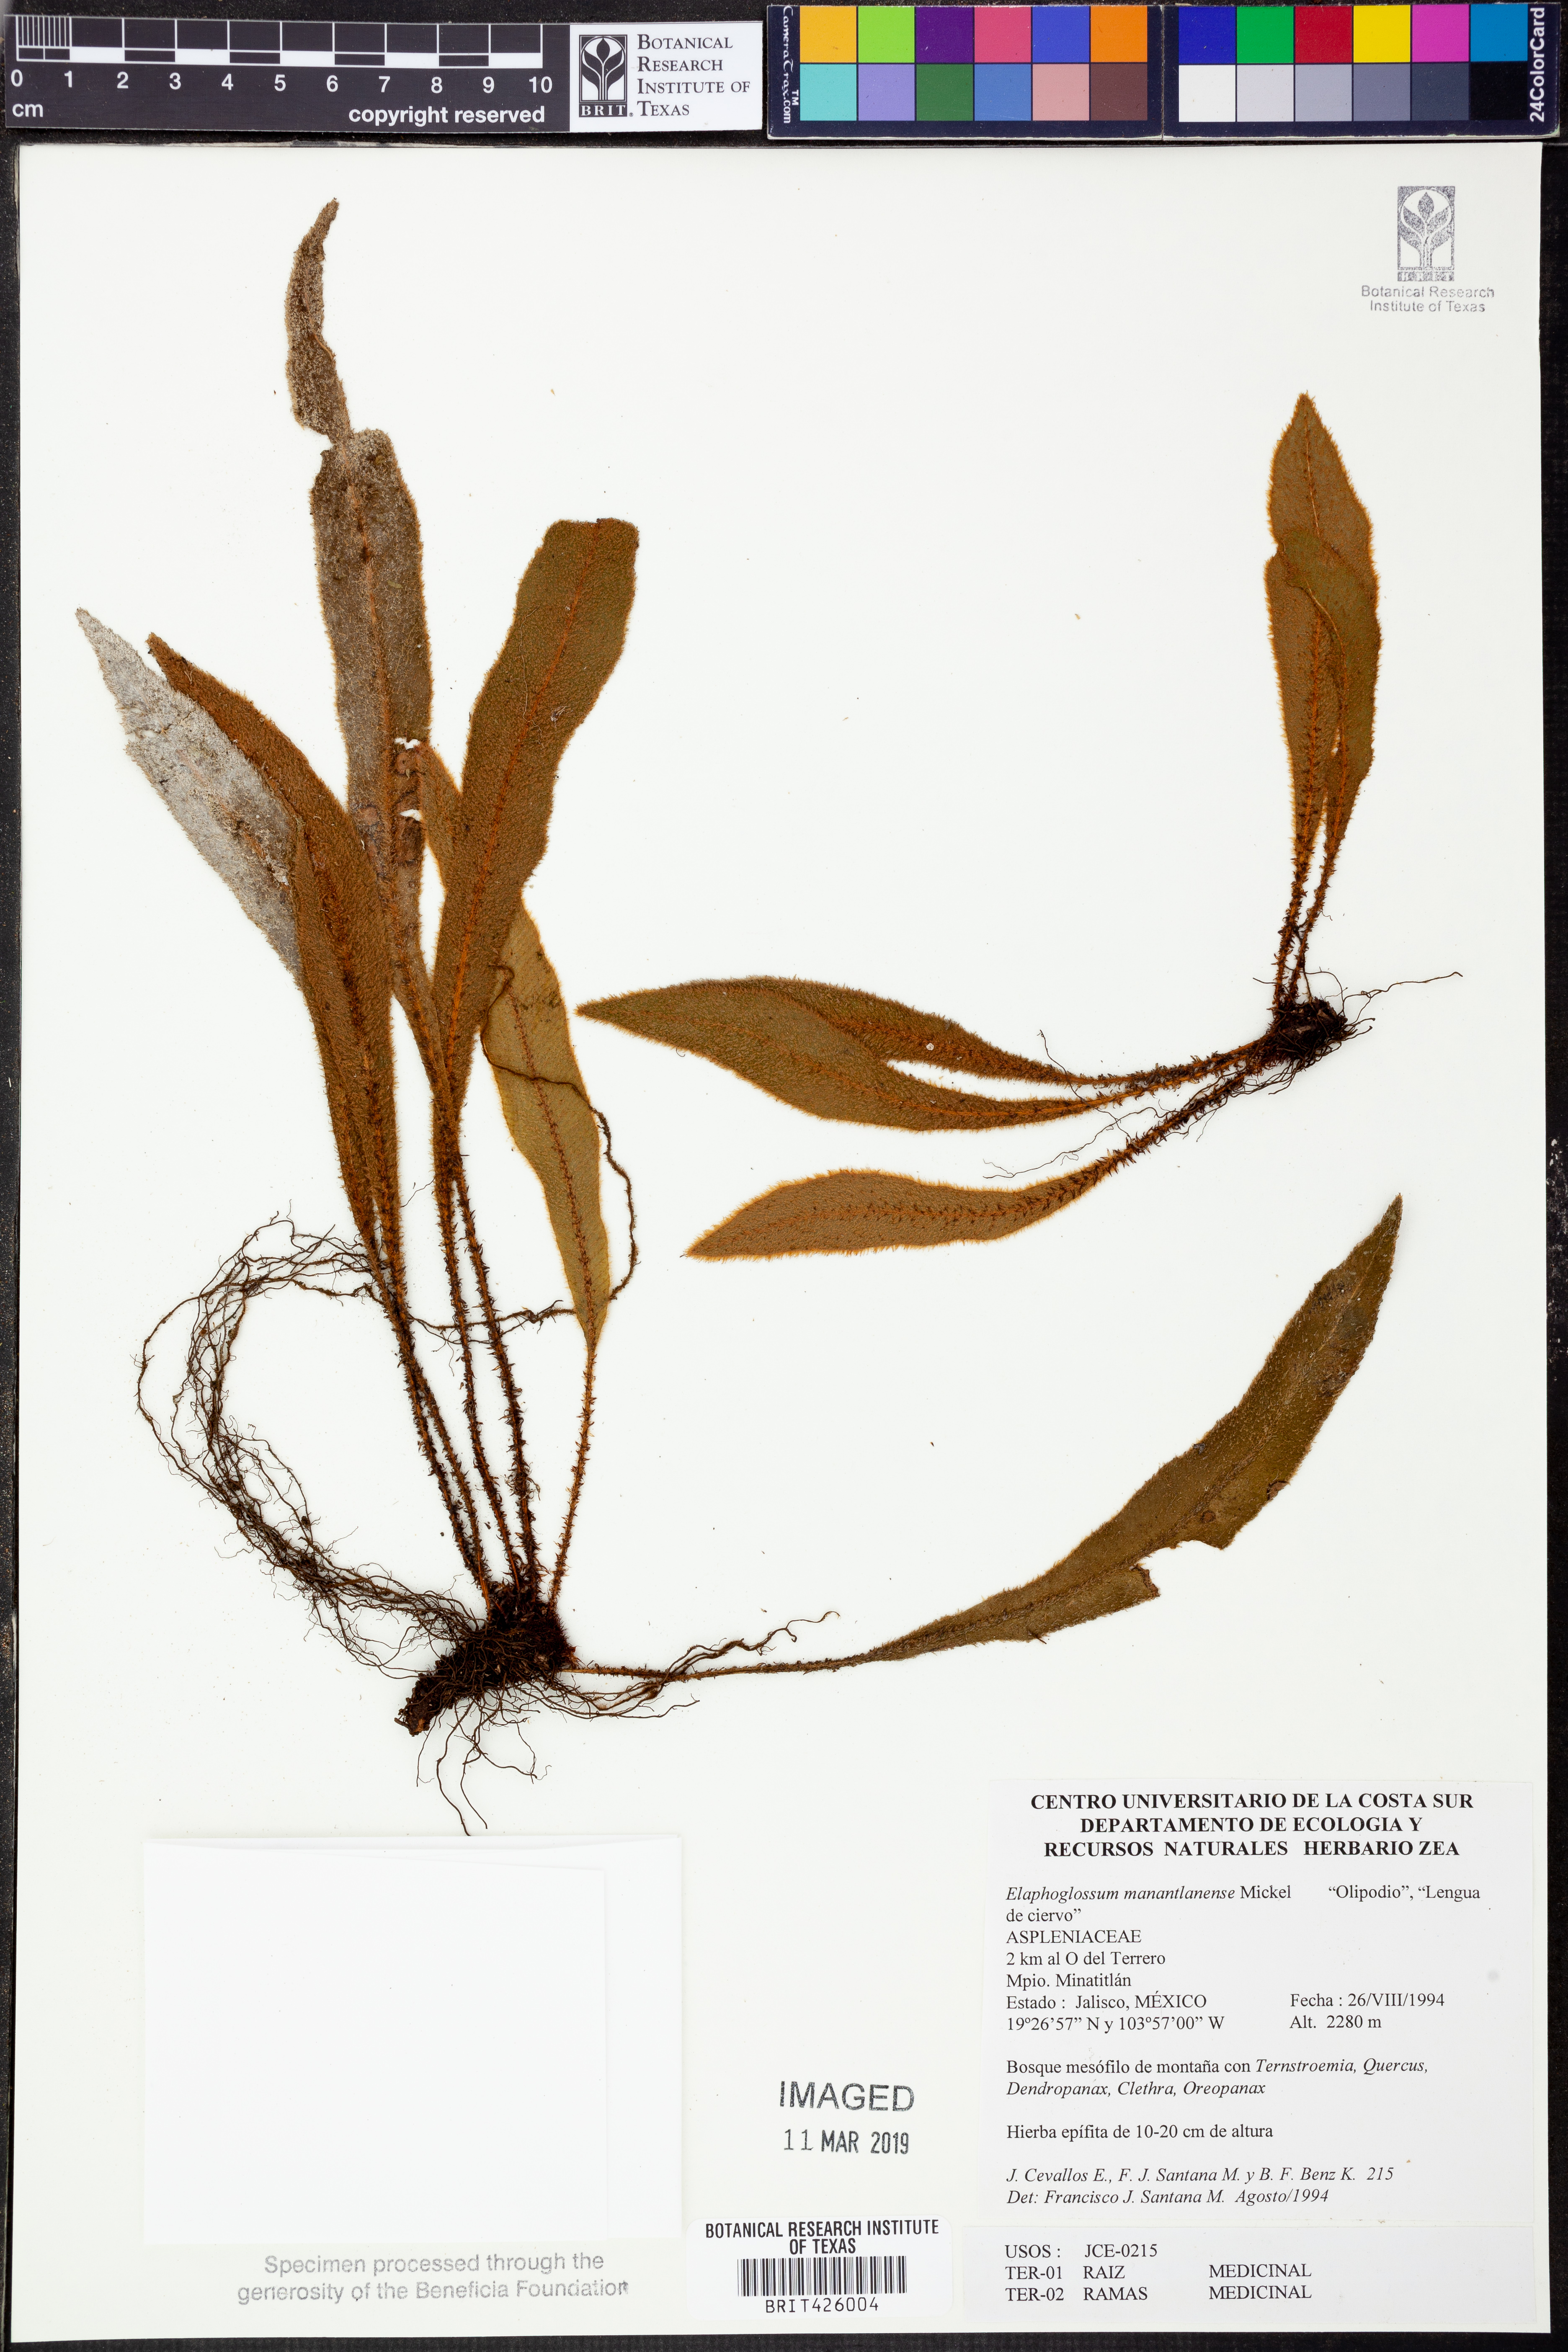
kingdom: Plantae
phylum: Tracheophyta
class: Polypodiopsida
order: Polypodiales
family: Dryopteridaceae
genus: Elaphoglossum
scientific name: Elaphoglossum manantlanense
